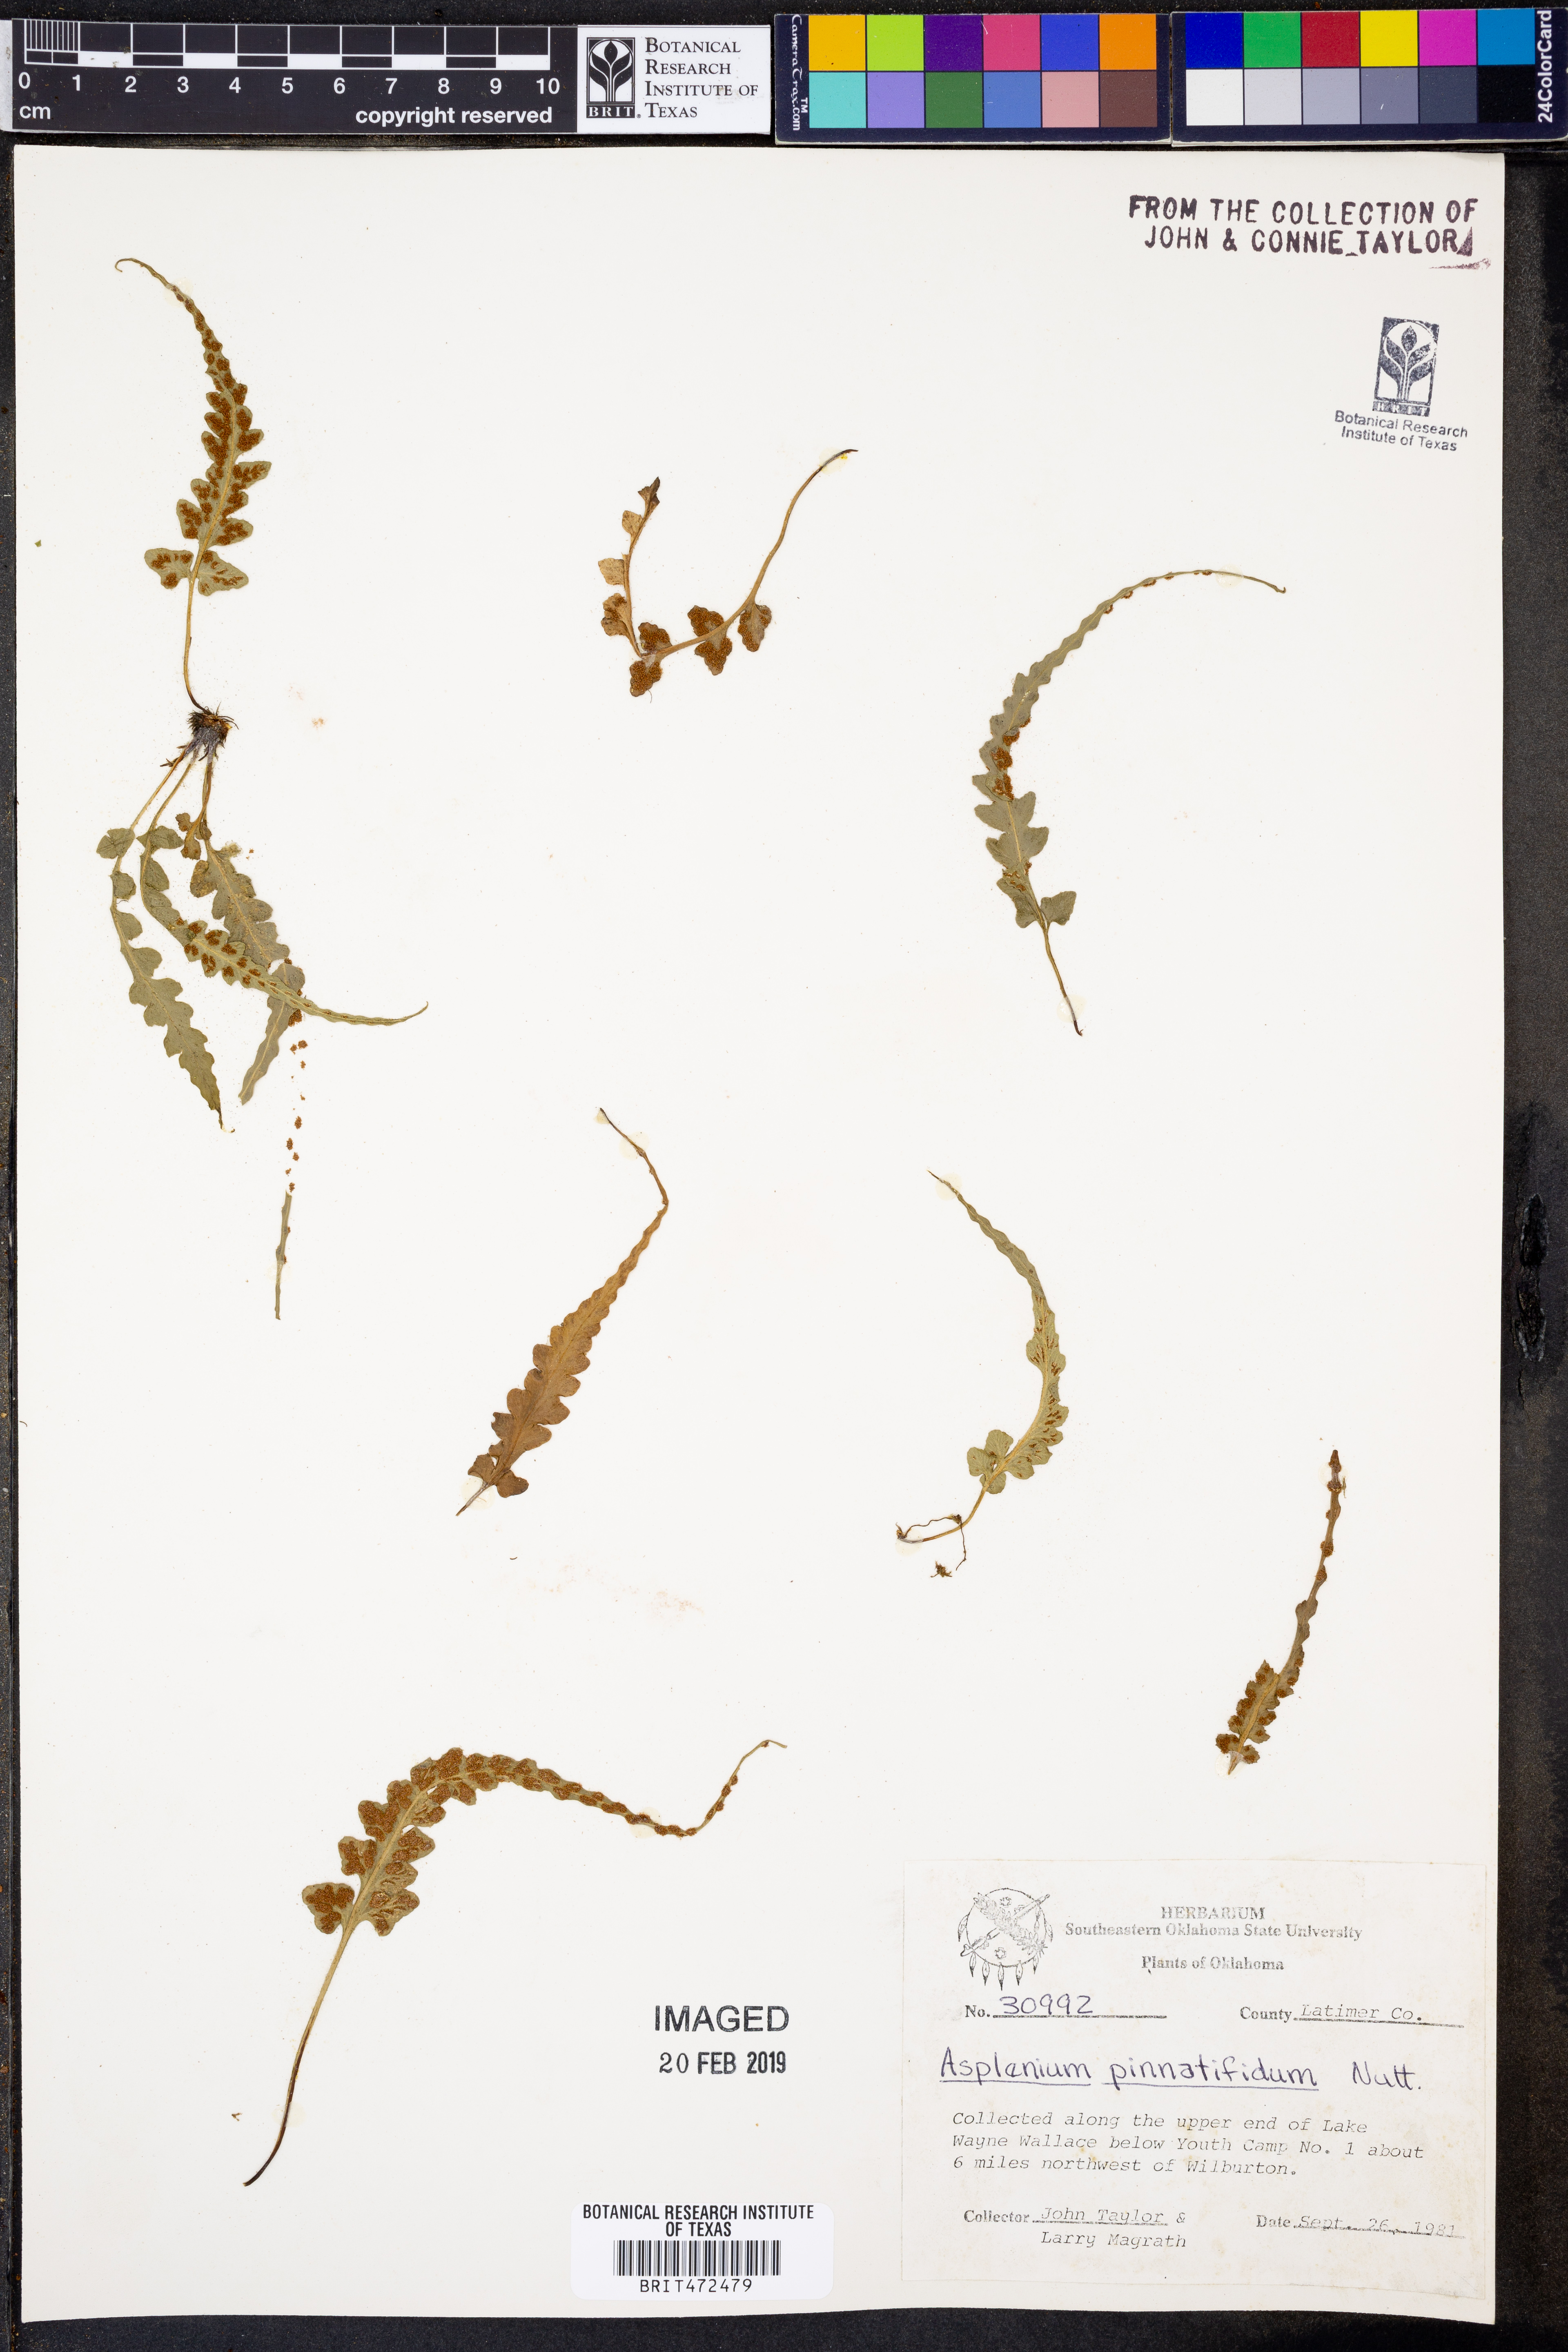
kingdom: Plantae
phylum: Tracheophyta
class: Polypodiopsida
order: Polypodiales
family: Aspleniaceae
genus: Asplenium
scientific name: Asplenium pinnatifidum
